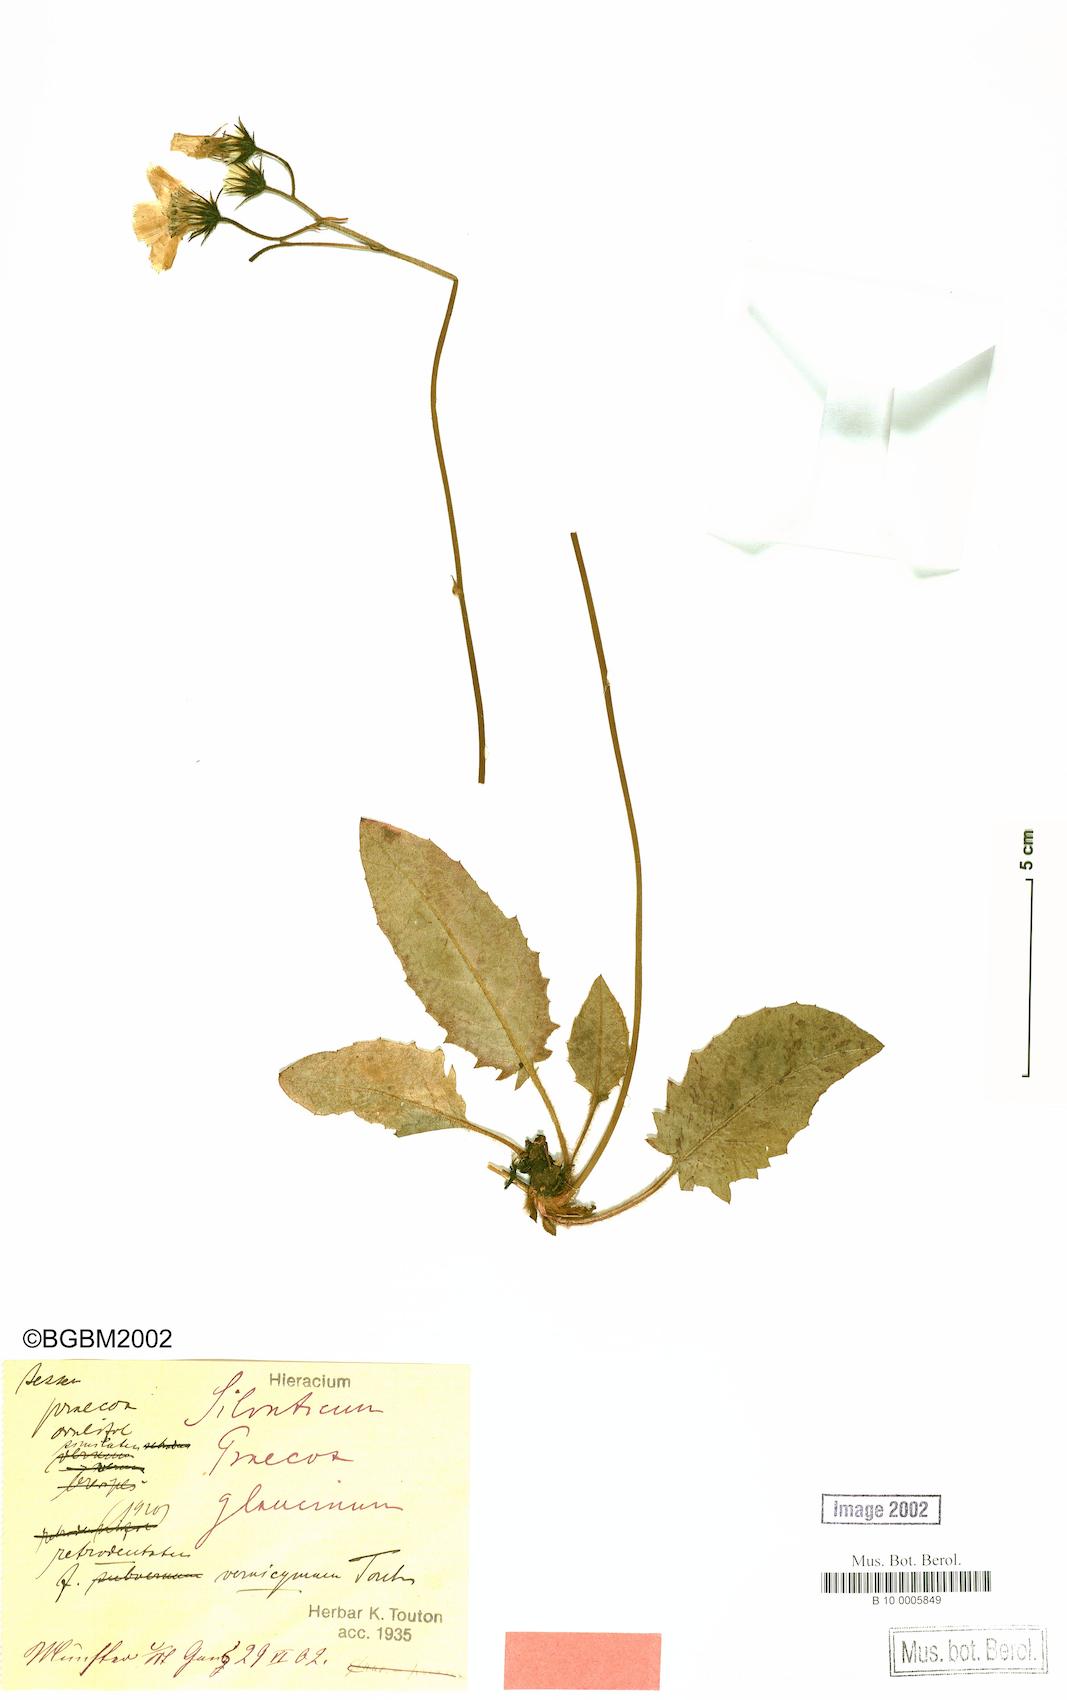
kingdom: Plantae
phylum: Tracheophyta
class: Magnoliopsida
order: Asterales
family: Asteraceae
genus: Hieracium
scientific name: Hieracium praecox
